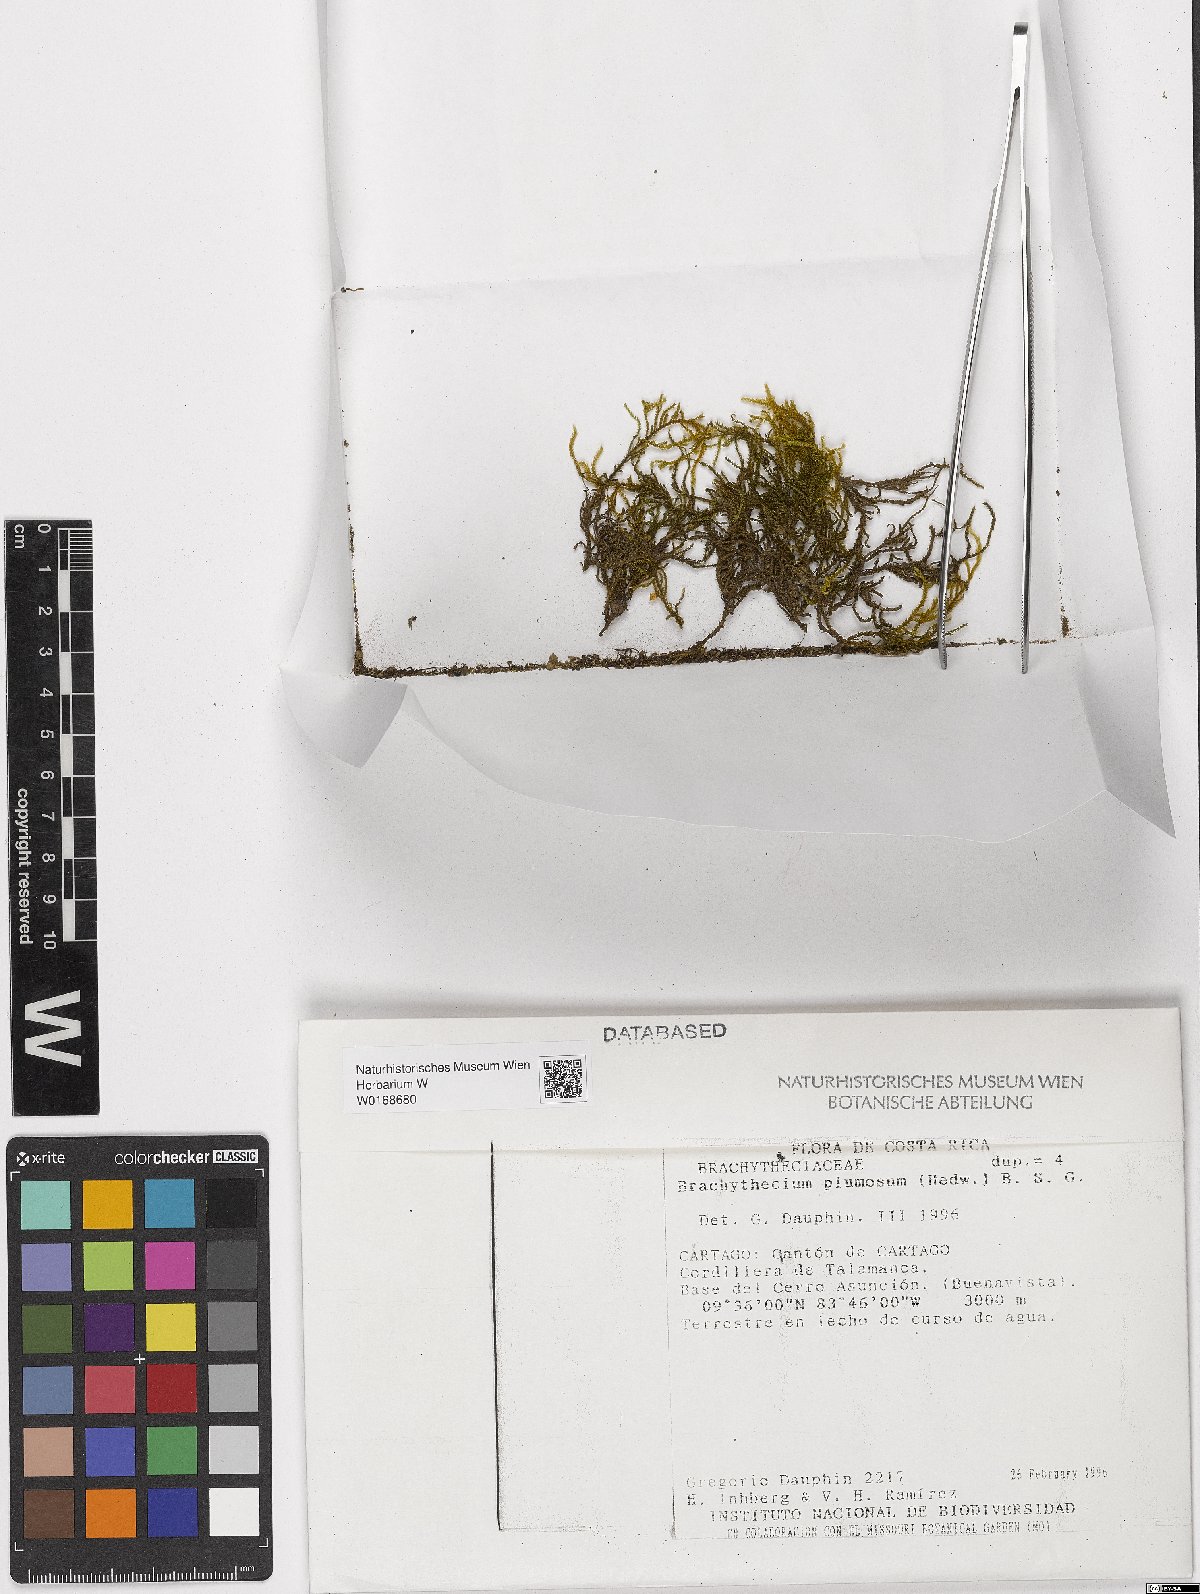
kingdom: Plantae
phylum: Bryophyta
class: Bryopsida
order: Hypnales
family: Brachytheciaceae
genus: Sciuro-hypnum
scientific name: Sciuro-hypnum plumosum
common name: Rusty feather-moss
